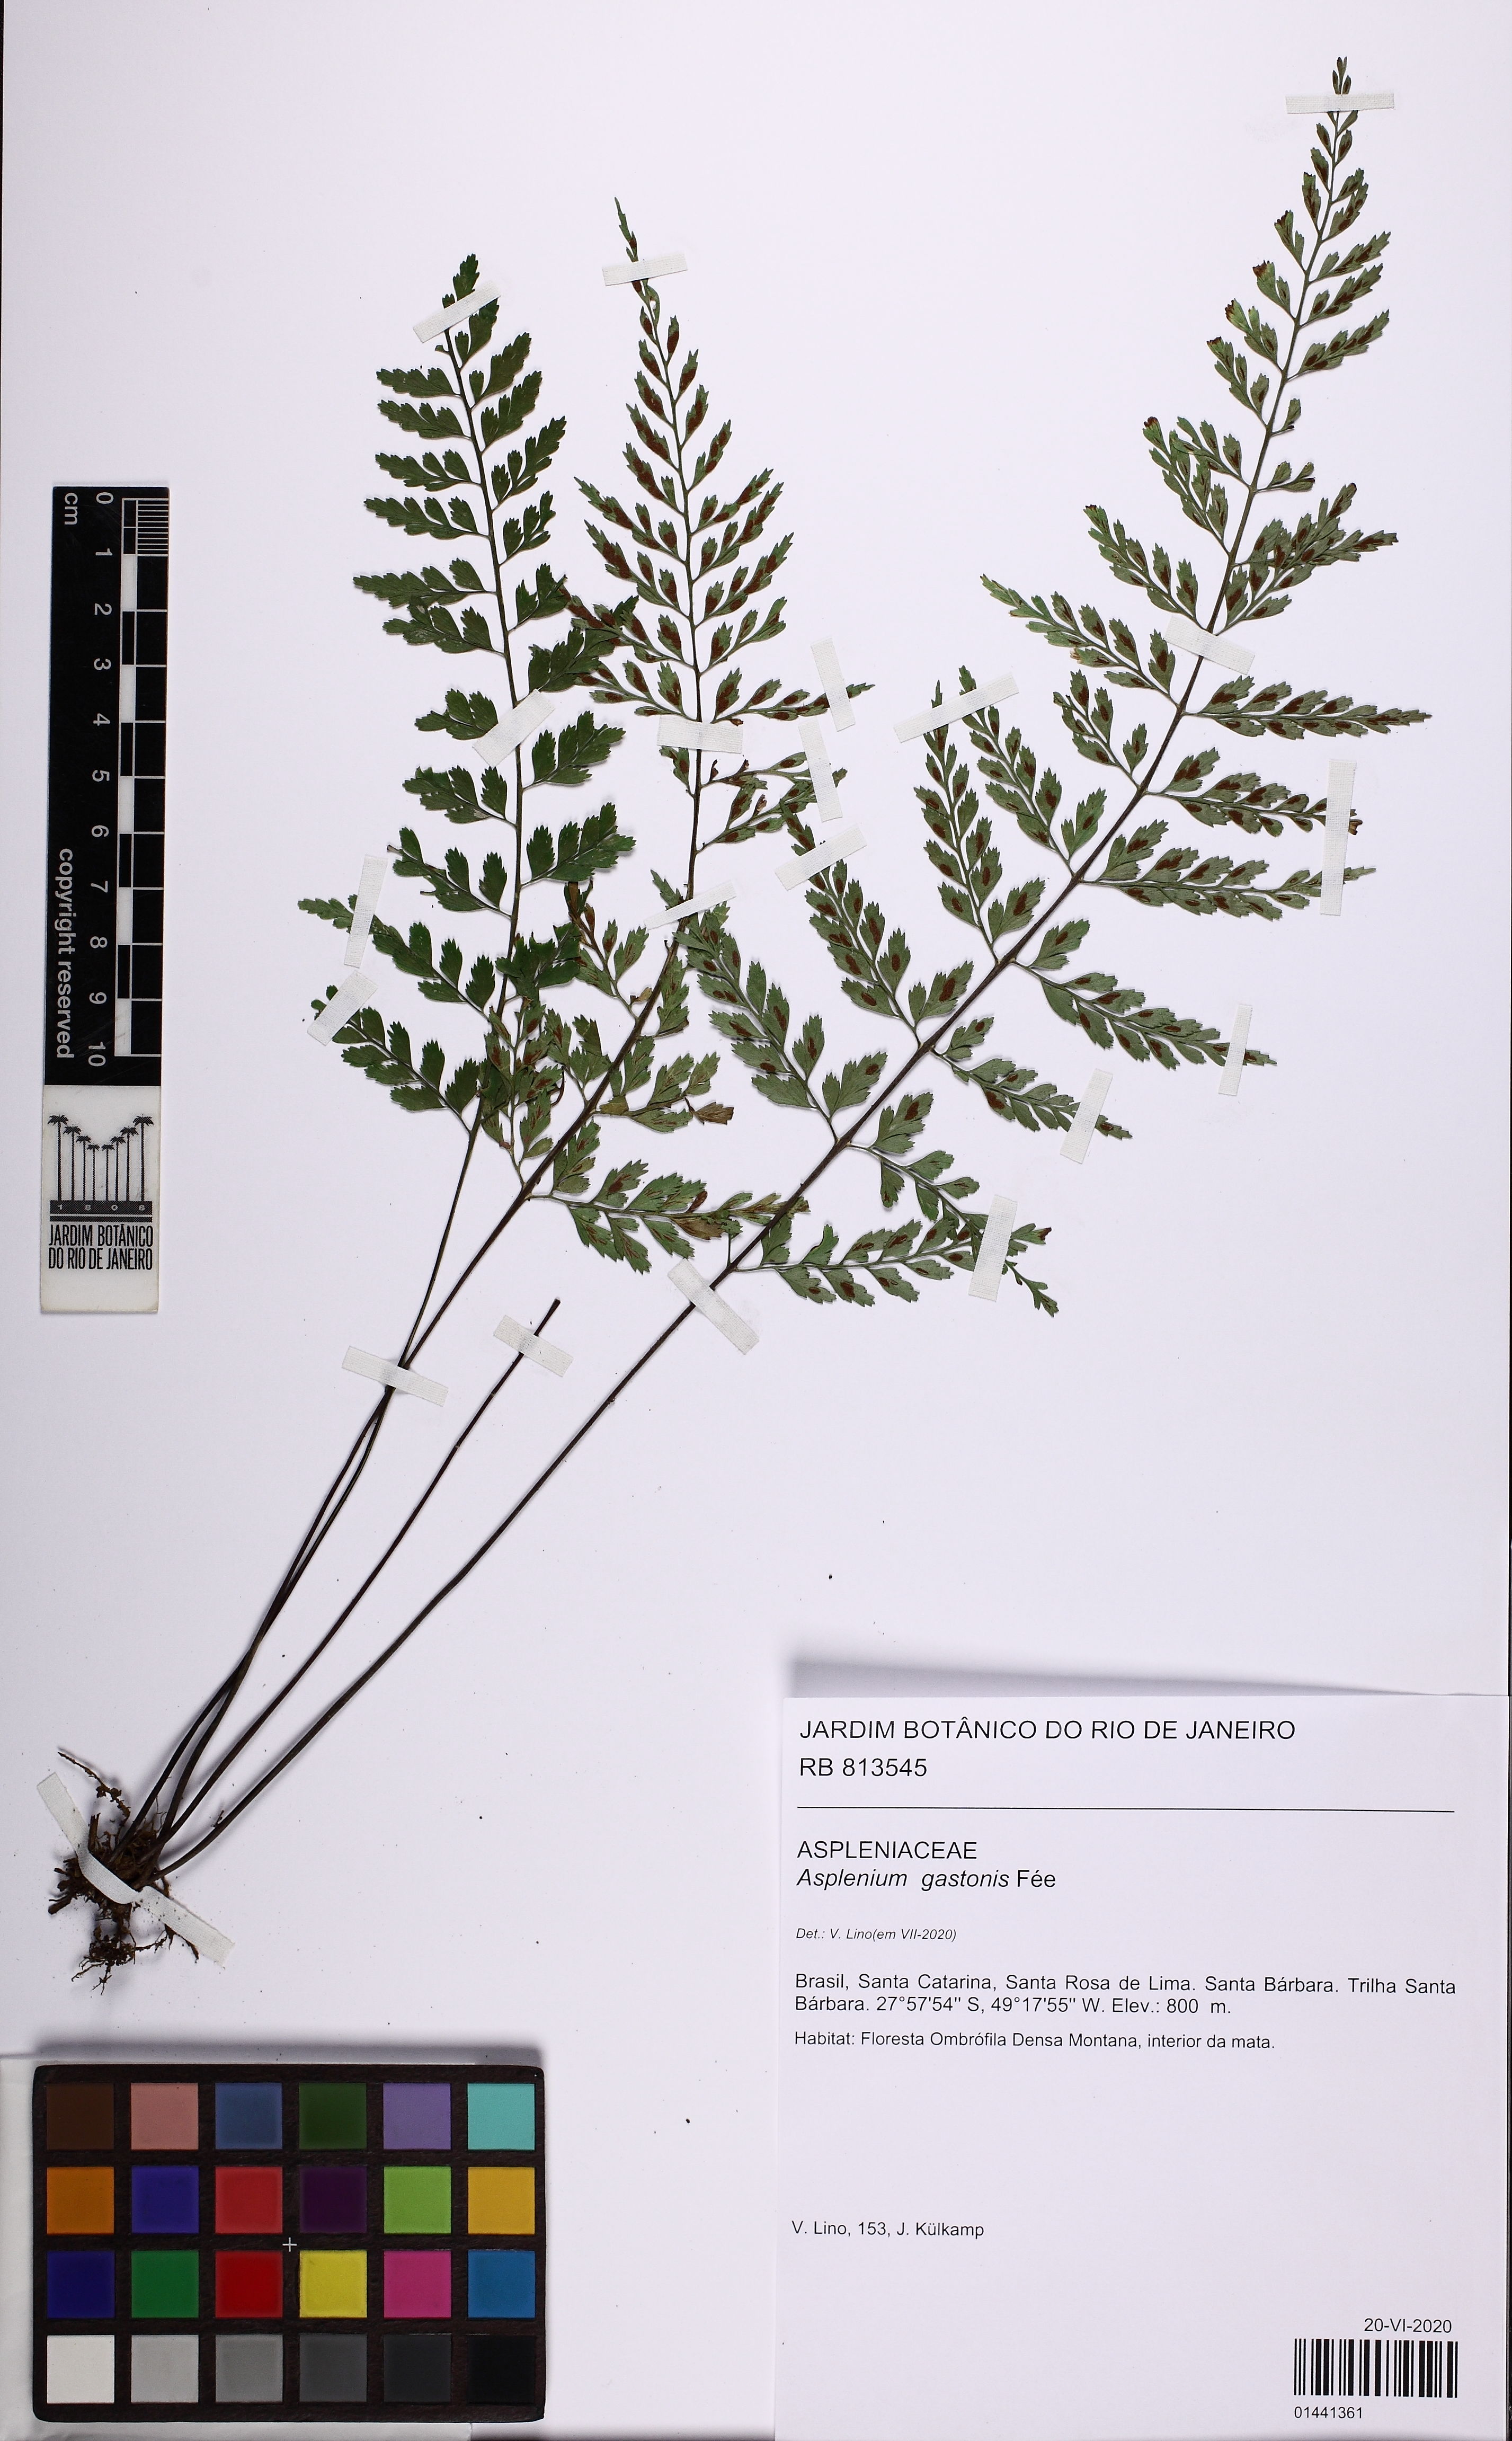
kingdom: Plantae
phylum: Tracheophyta
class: Polypodiopsida
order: Polypodiales
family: Aspleniaceae
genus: Asplenium
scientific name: Asplenium gastonis
